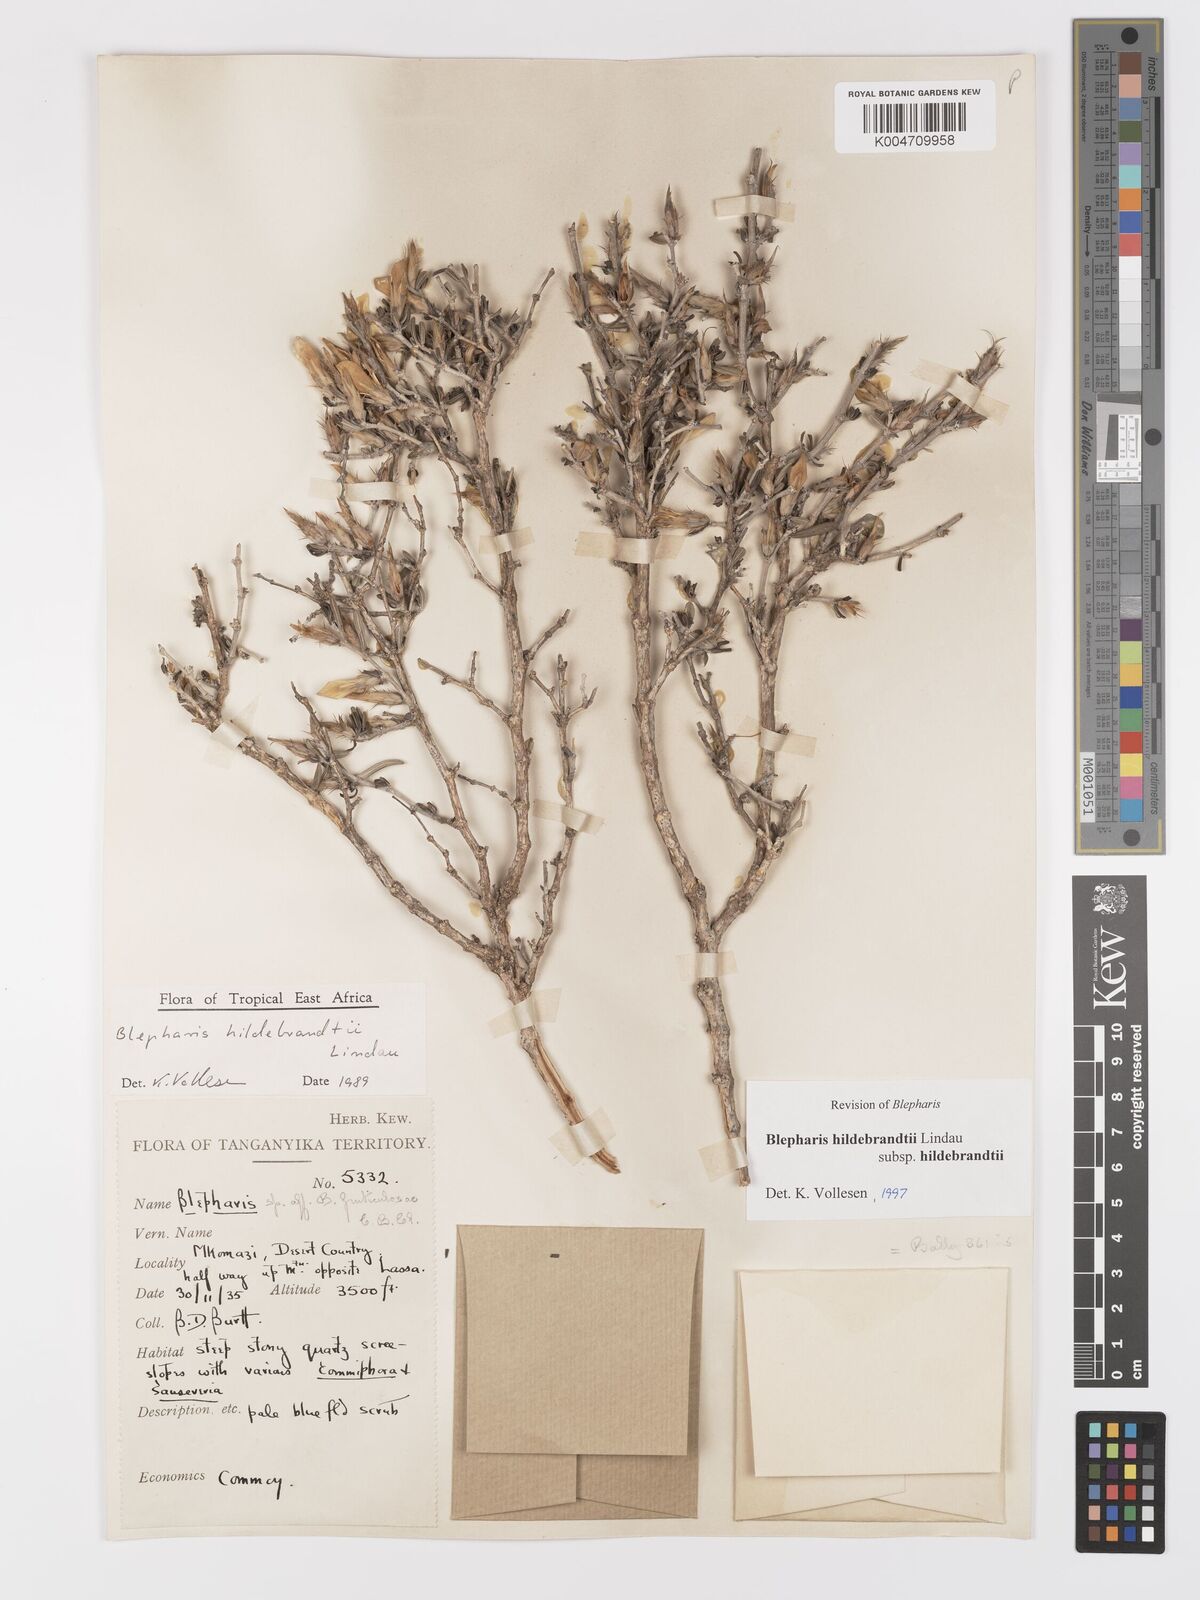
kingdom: Plantae
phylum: Tracheophyta
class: Magnoliopsida
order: Lamiales
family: Acanthaceae
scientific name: Acanthaceae
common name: Acanthaceae
